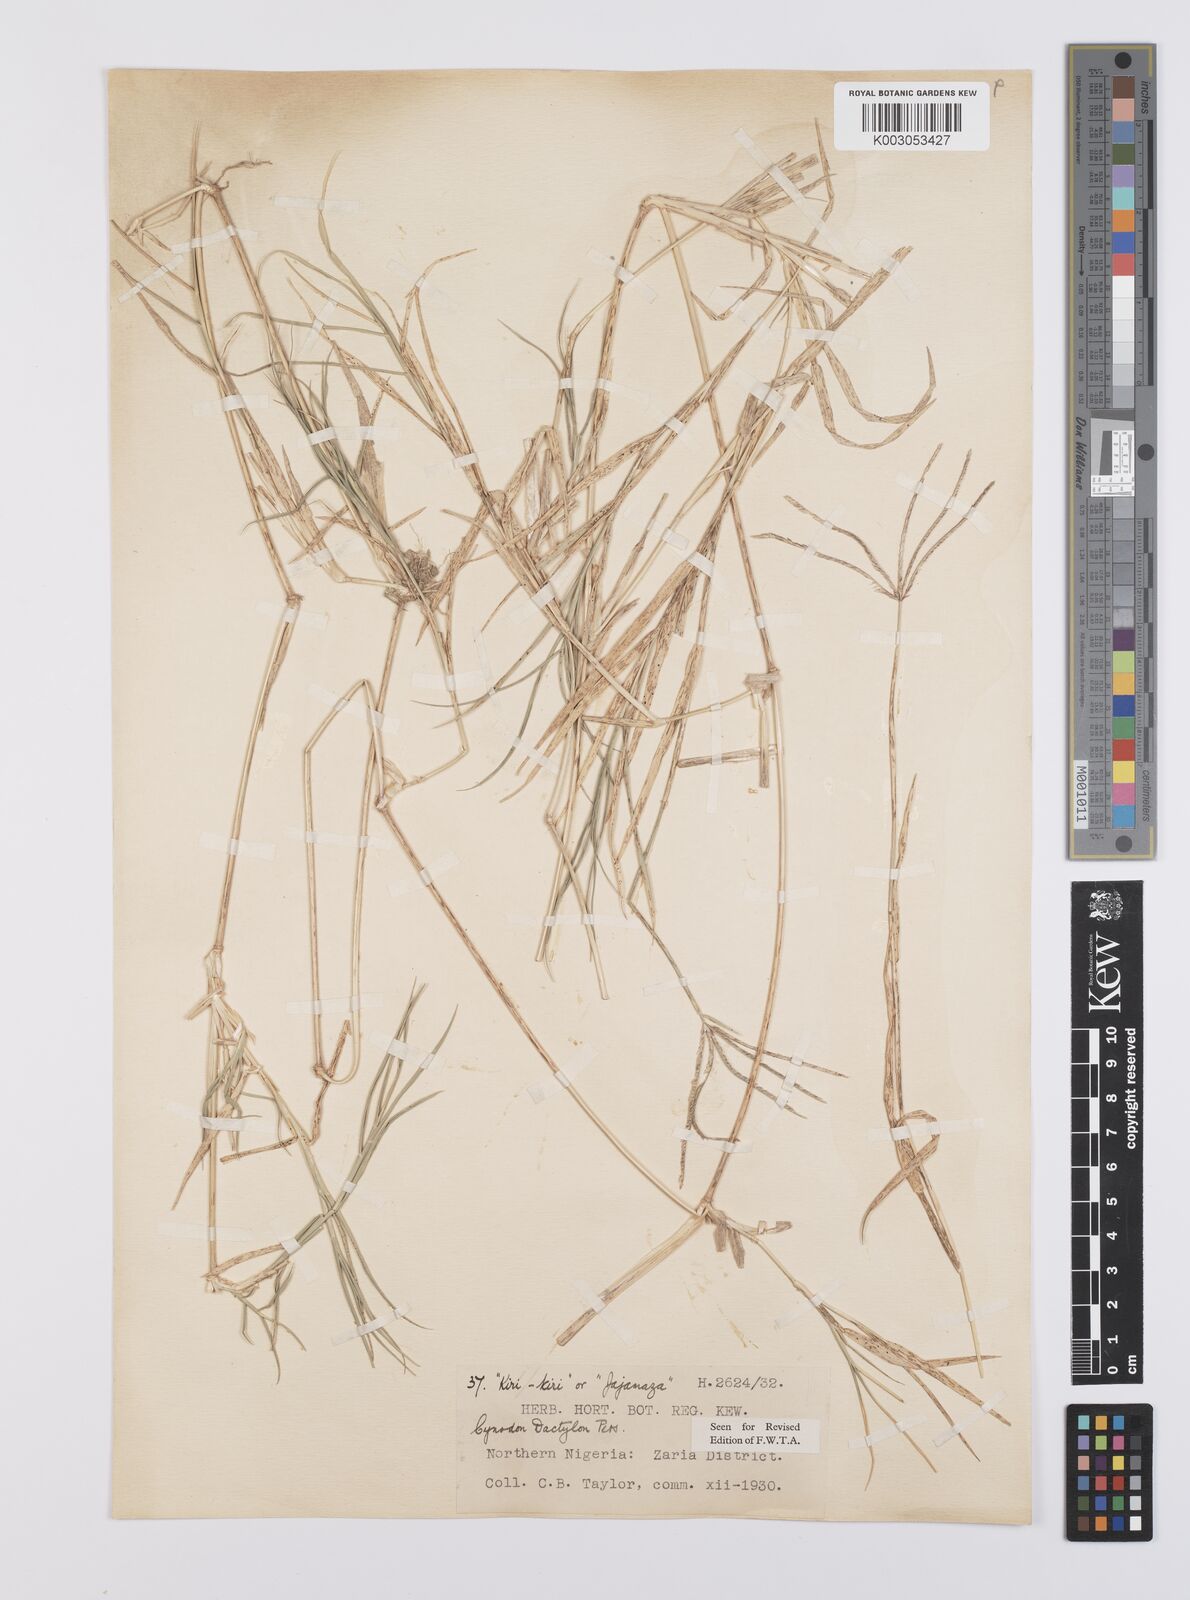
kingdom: Plantae
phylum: Tracheophyta
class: Liliopsida
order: Poales
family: Poaceae
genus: Cynodon
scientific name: Cynodon dactylon
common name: Bermuda grass
